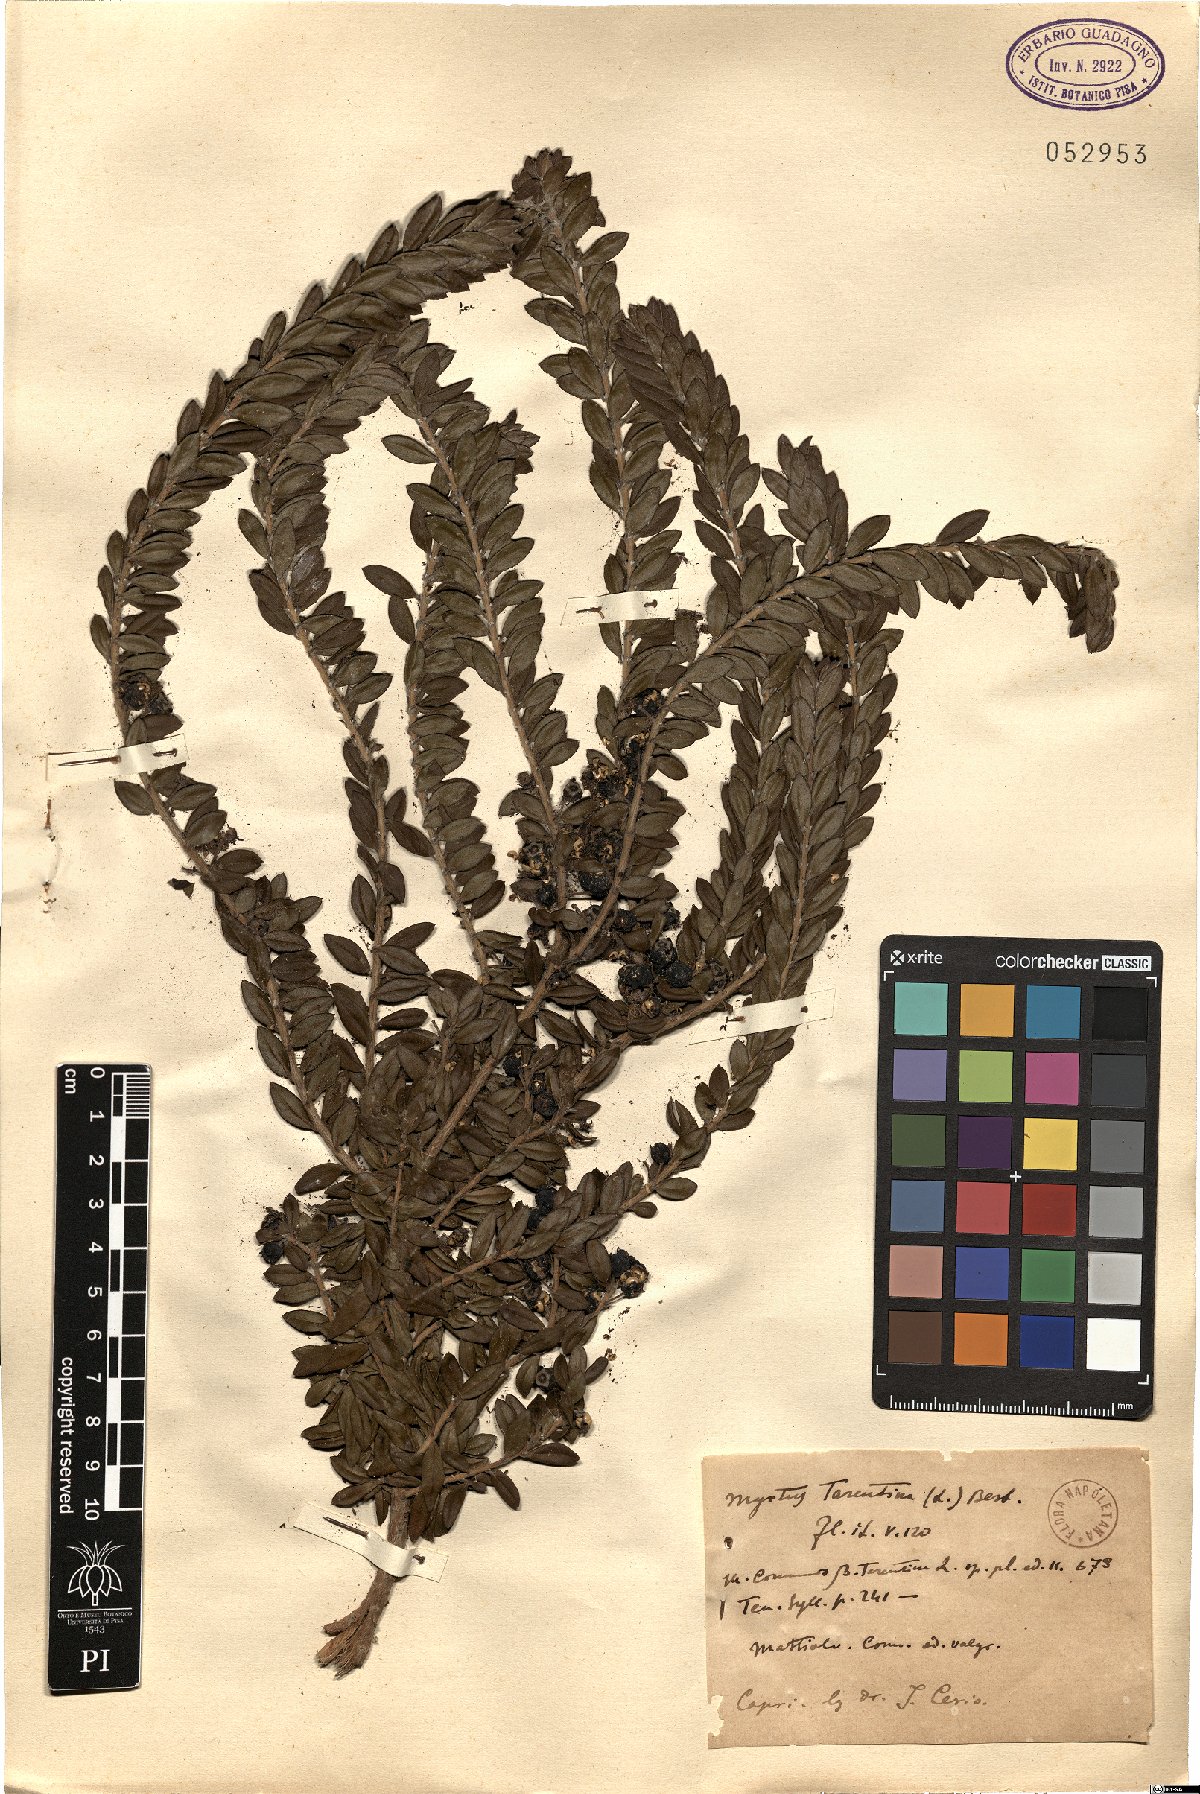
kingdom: Plantae
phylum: Tracheophyta
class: Magnoliopsida
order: Myrtales
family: Myrtaceae
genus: Myrtus
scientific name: Myrtus communis
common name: Myrtle
